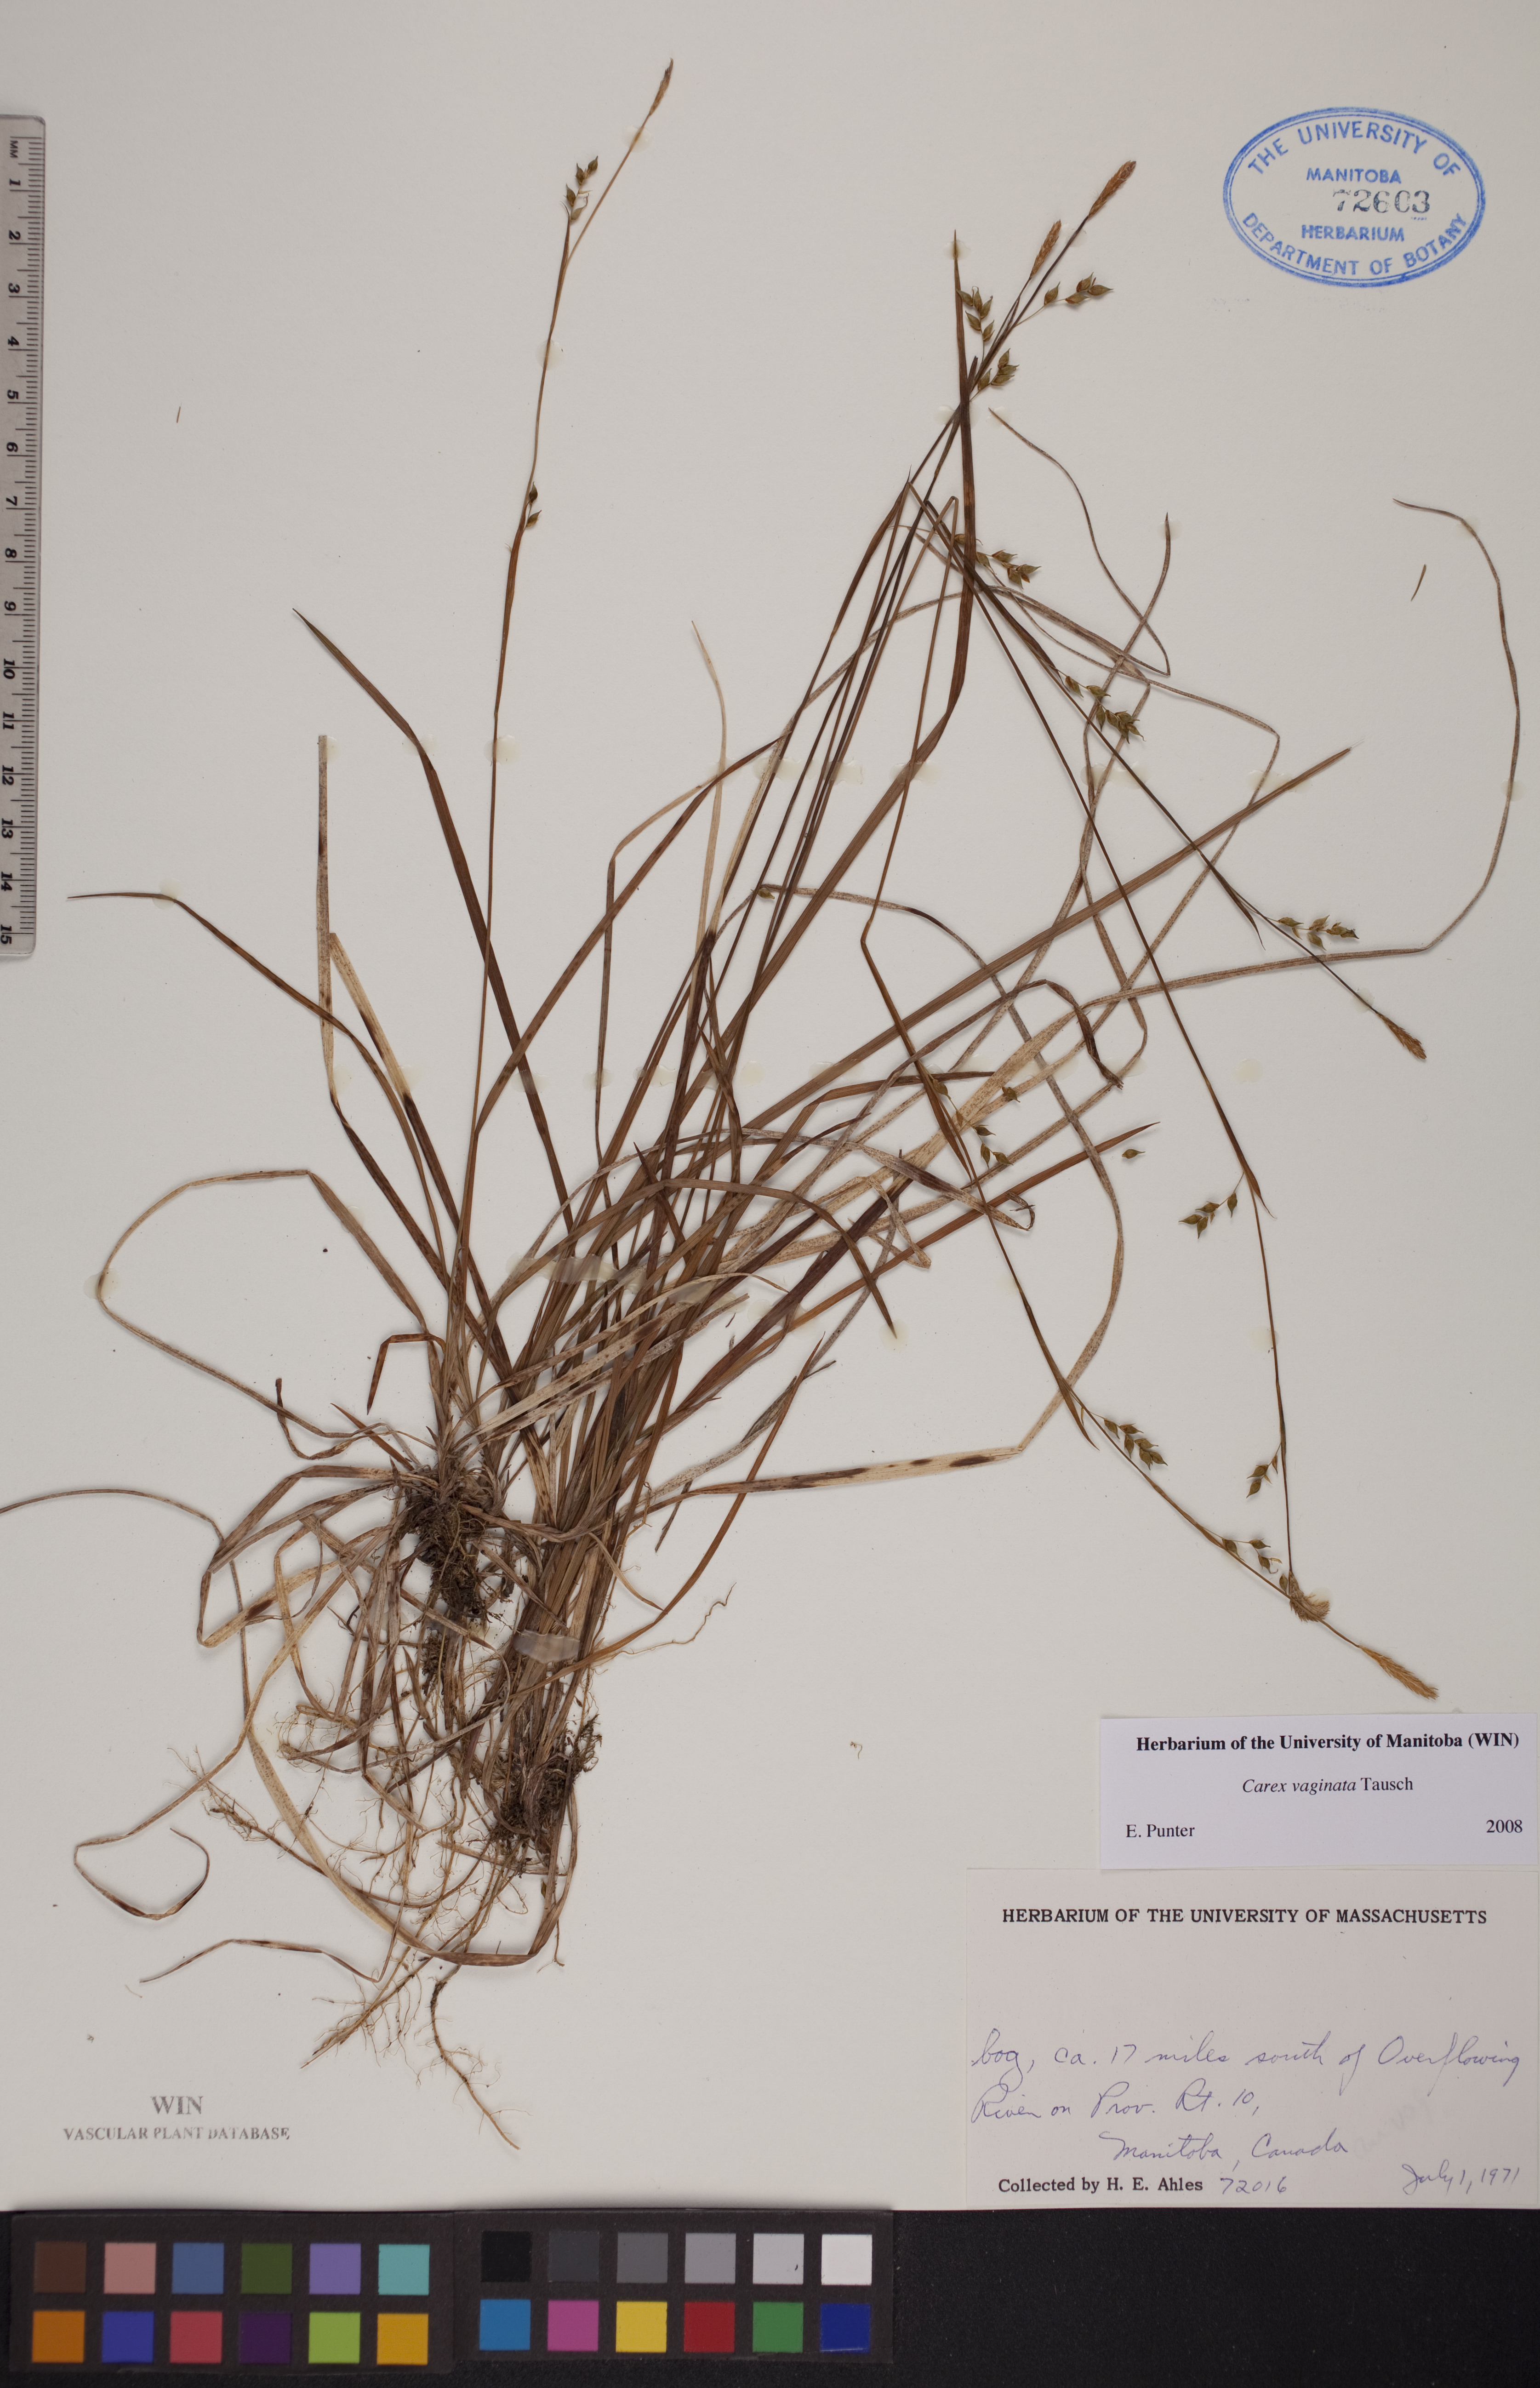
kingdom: Plantae
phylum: Tracheophyta
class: Liliopsida
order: Poales
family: Cyperaceae
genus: Carex
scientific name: Carex vaginata
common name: Sheathed sedge
